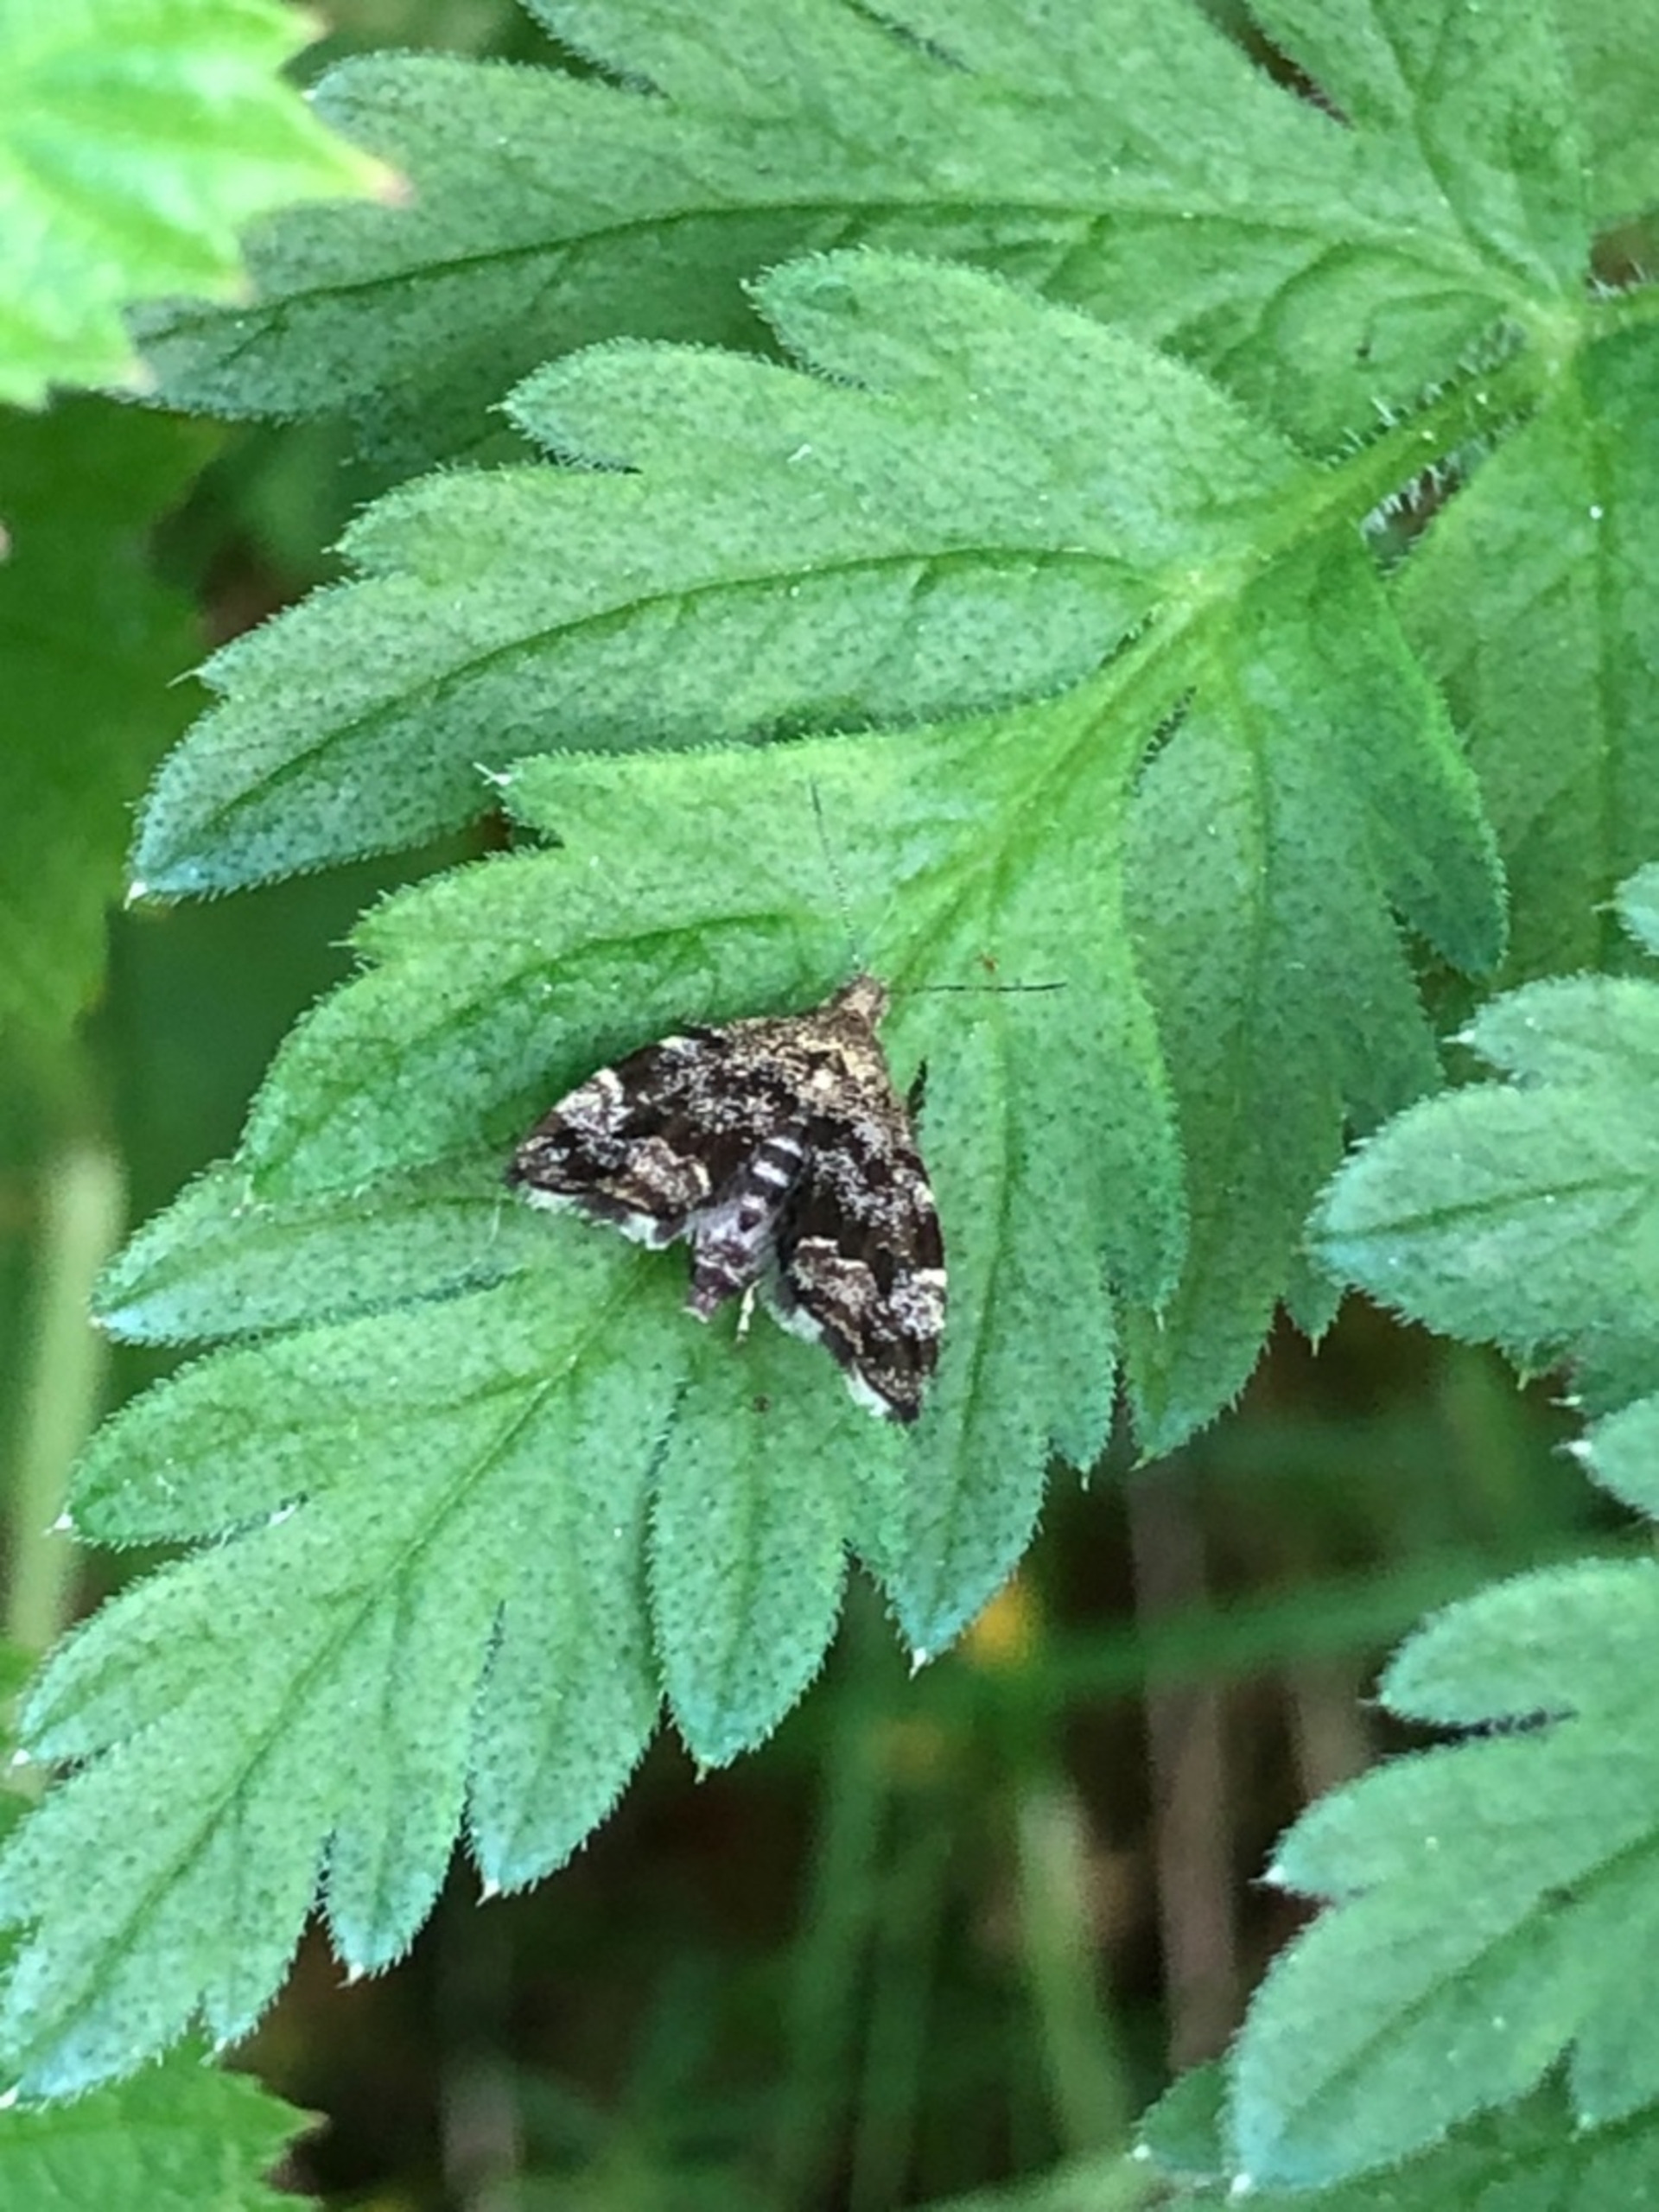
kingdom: Animalia
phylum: Arthropoda
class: Insecta
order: Lepidoptera
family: Choreutidae
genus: Anthophila
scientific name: Anthophila fabriciana
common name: Bredvinget nældevikler
